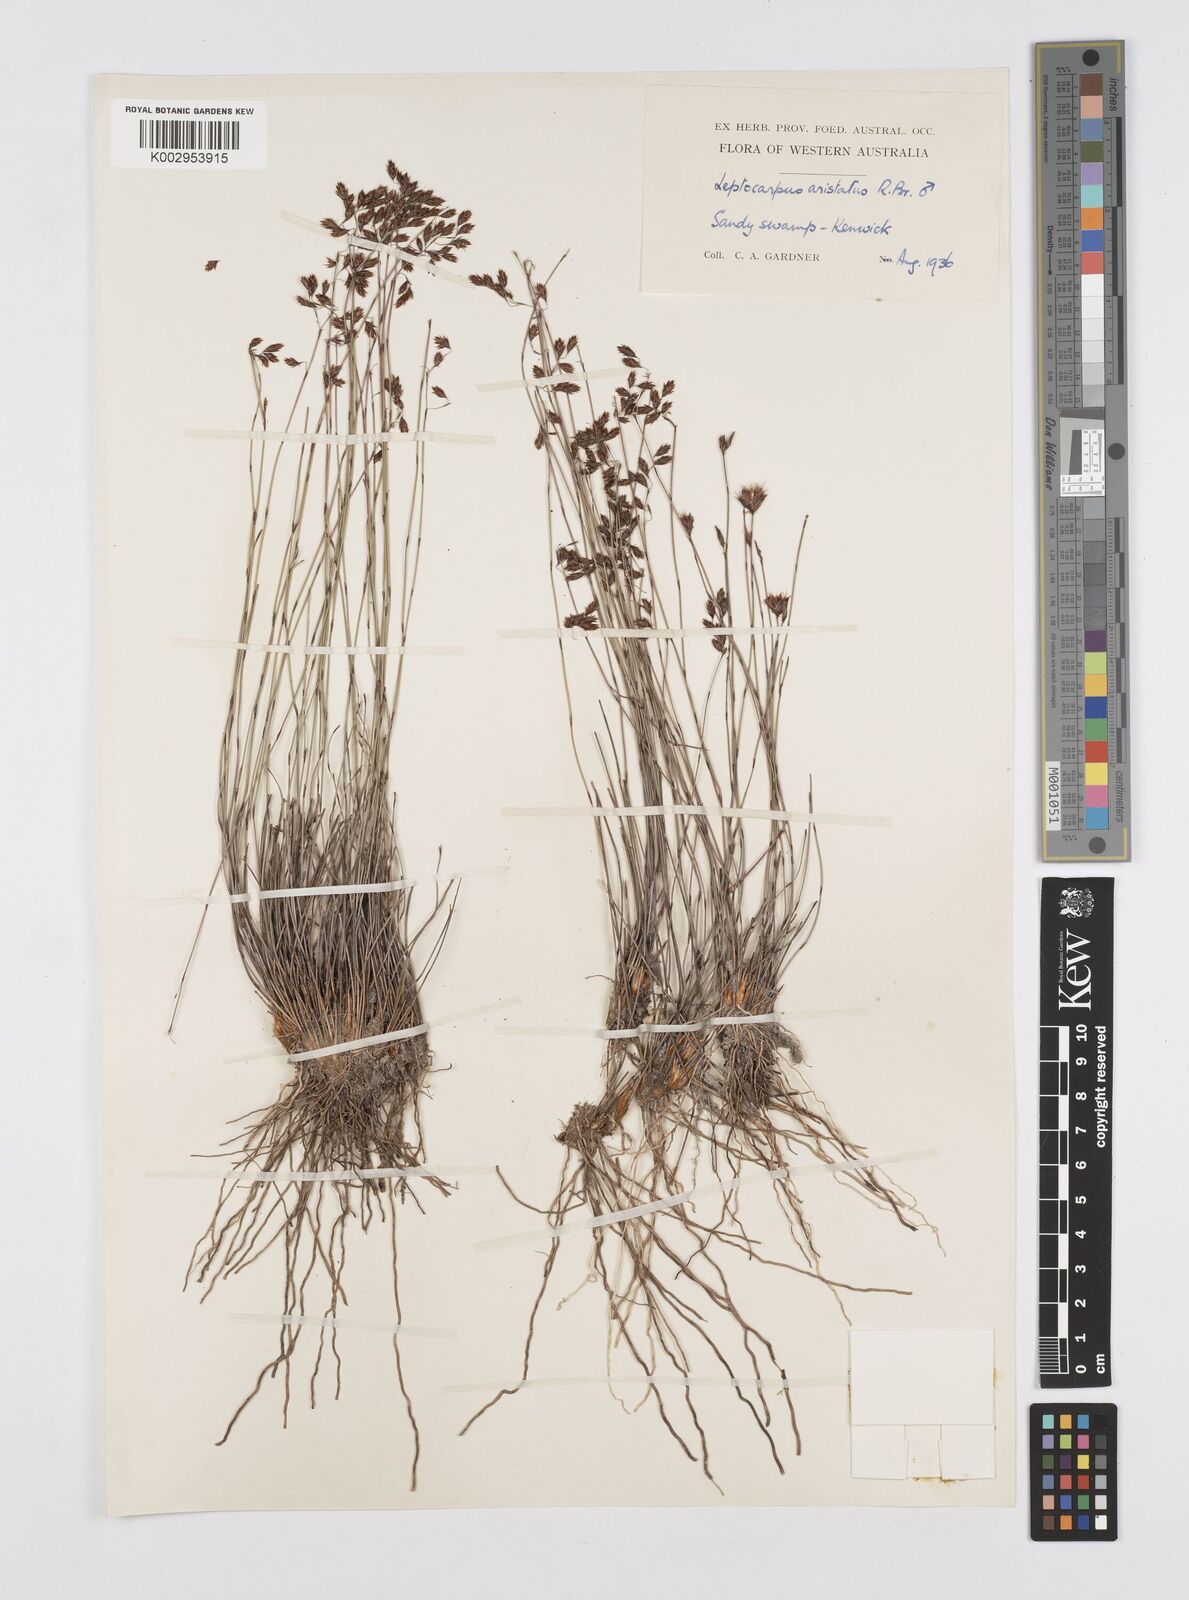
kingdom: Plantae
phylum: Tracheophyta
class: Liliopsida
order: Poales
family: Restionaceae
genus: Chaetanthus
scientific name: Chaetanthus aristatus
